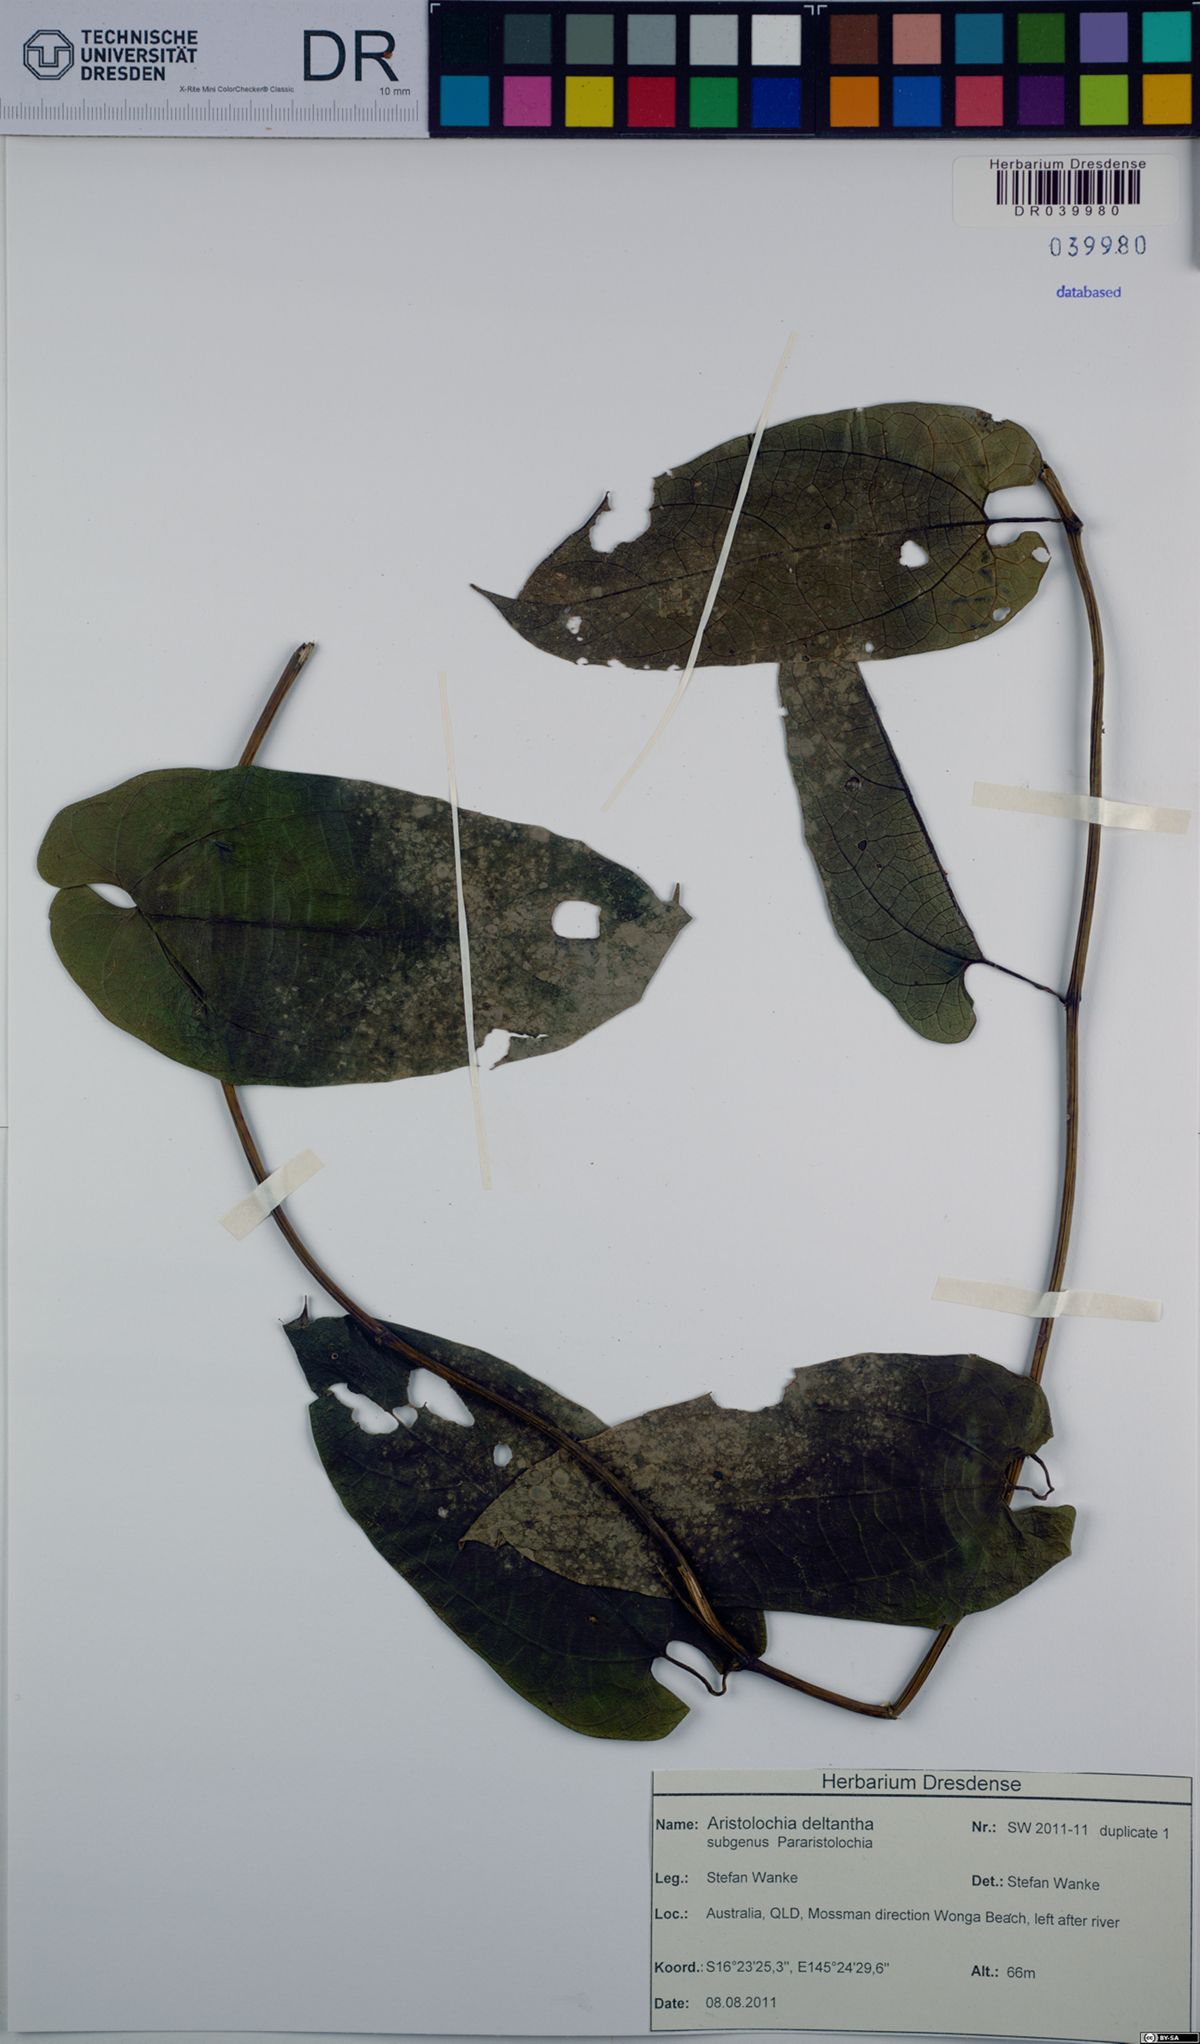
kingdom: Plantae
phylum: Tracheophyta
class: Magnoliopsida
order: Piperales
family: Aristolochiaceae
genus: Aristolochia
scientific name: Aristolochia deltantha
